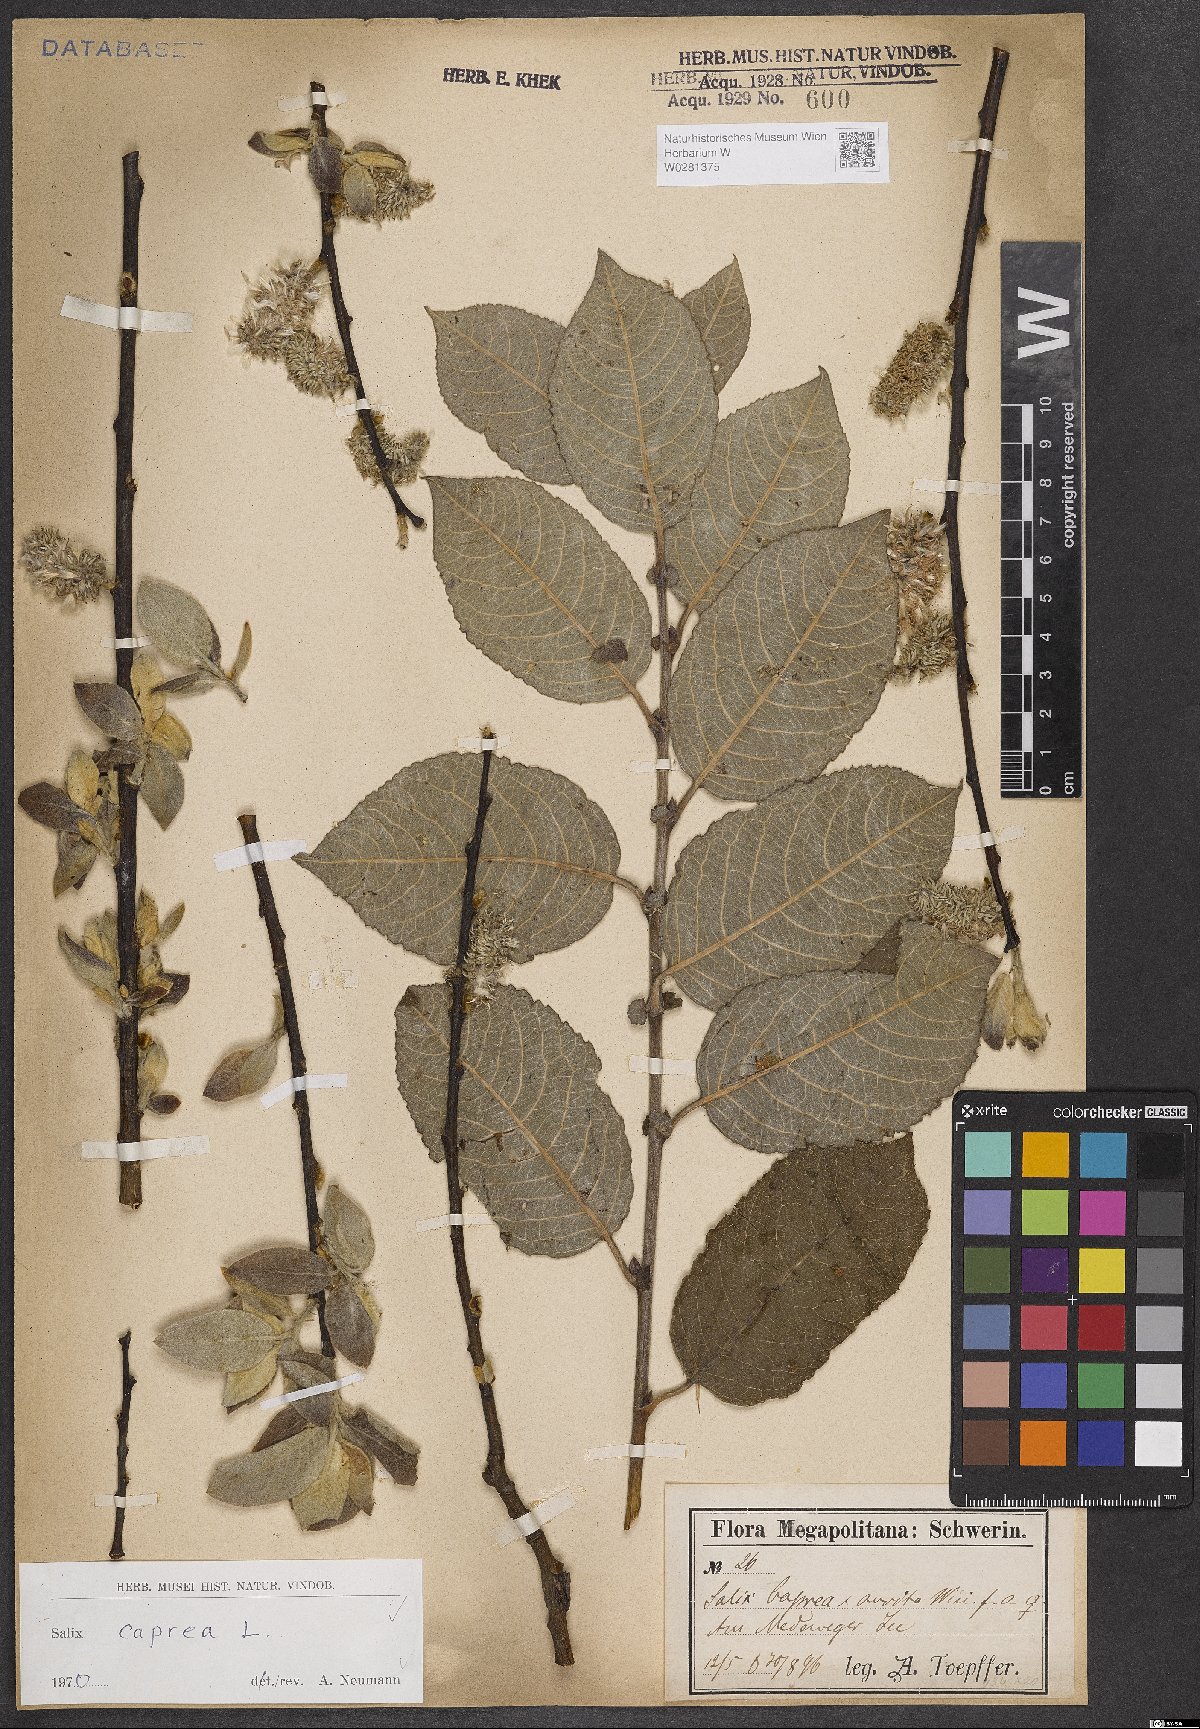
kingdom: Plantae
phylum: Tracheophyta
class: Magnoliopsida
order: Malpighiales
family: Salicaceae
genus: Salix
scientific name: Salix caprea
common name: Goat willow
